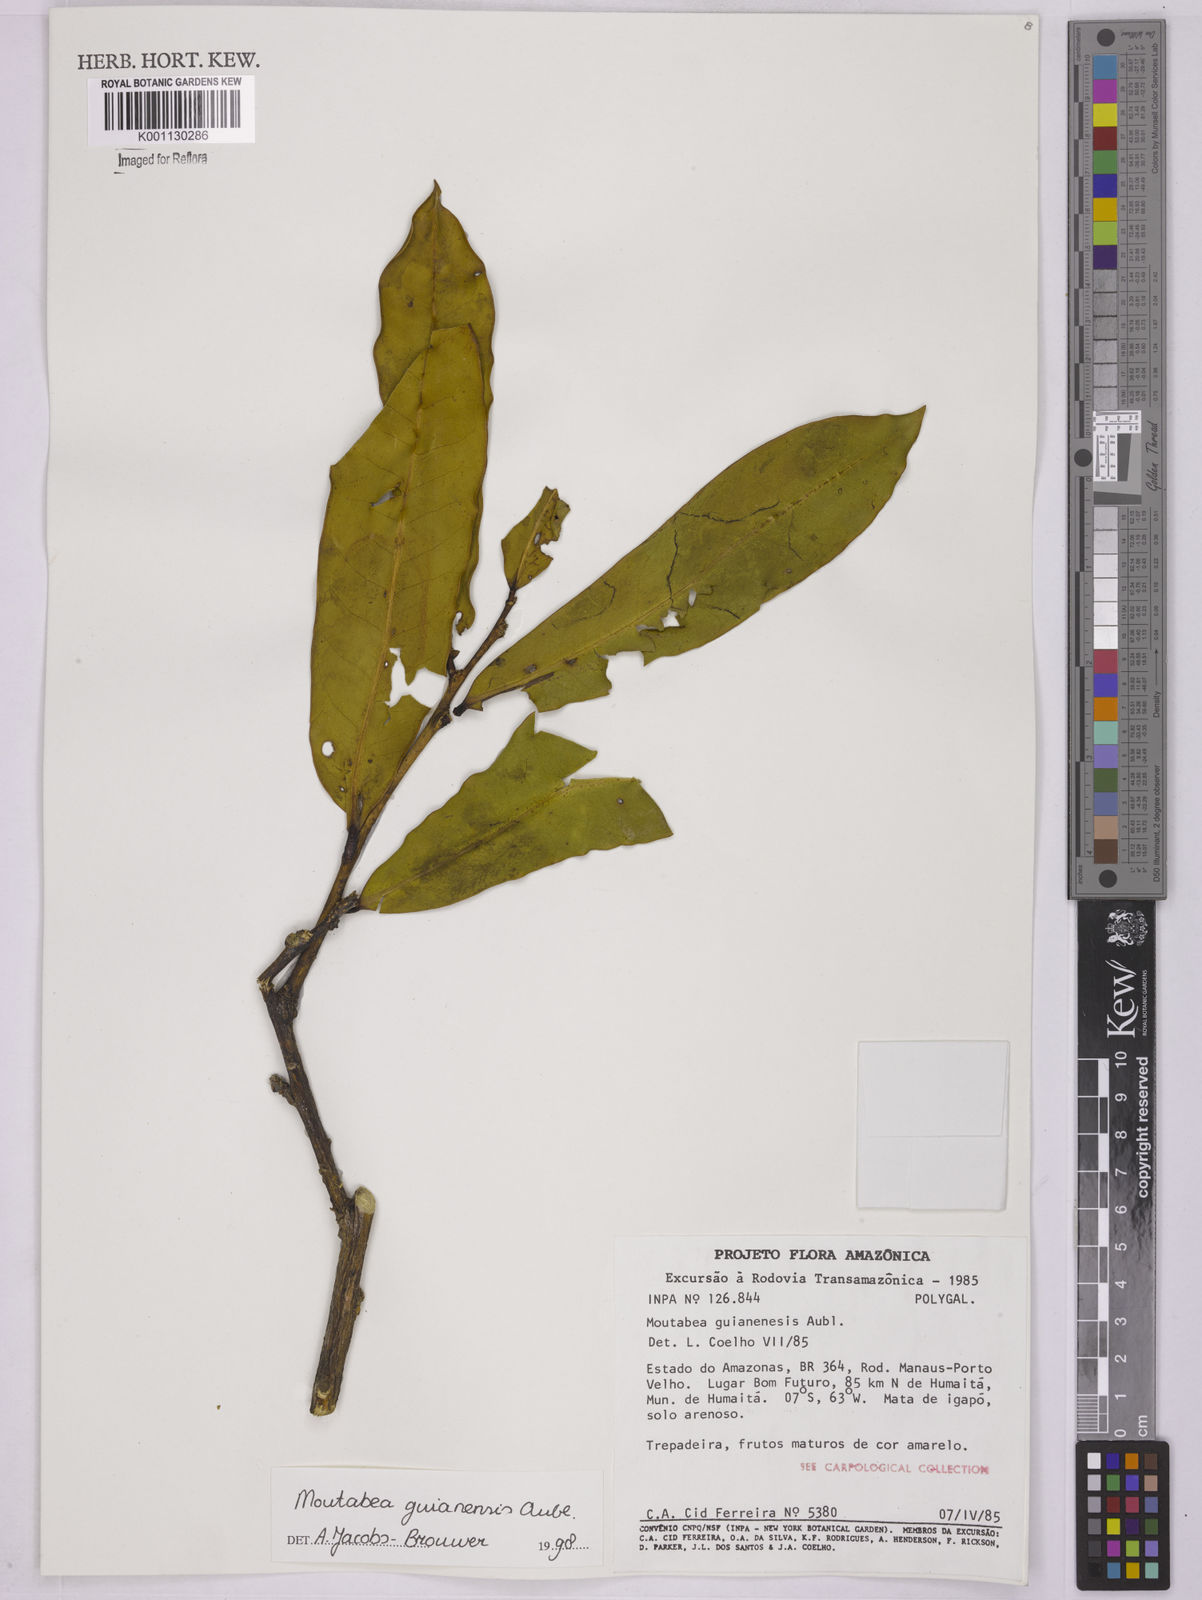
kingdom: Plantae
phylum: Tracheophyta
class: Magnoliopsida
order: Fabales
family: Polygalaceae
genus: Moutabea
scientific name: Moutabea guianensis
